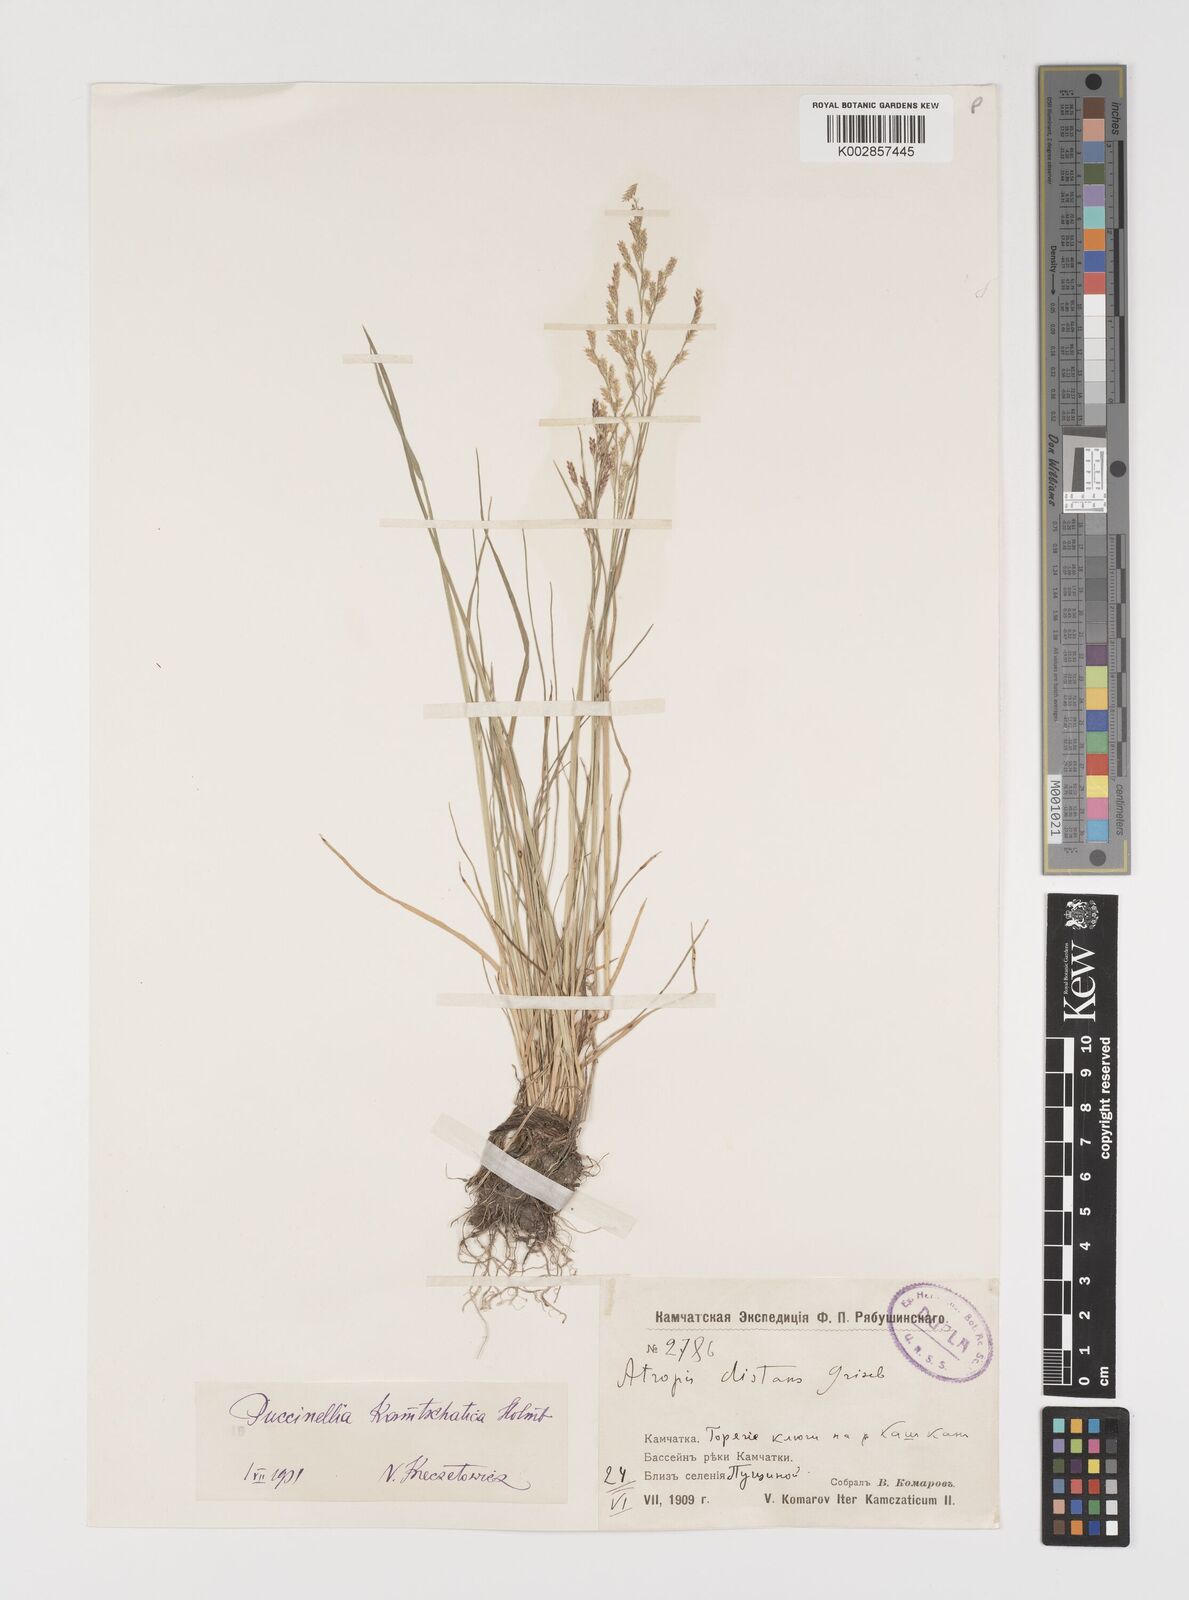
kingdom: Plantae
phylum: Tracheophyta
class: Liliopsida
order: Poales
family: Poaceae
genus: Puccinellia
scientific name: Puccinellia kamtschatica
